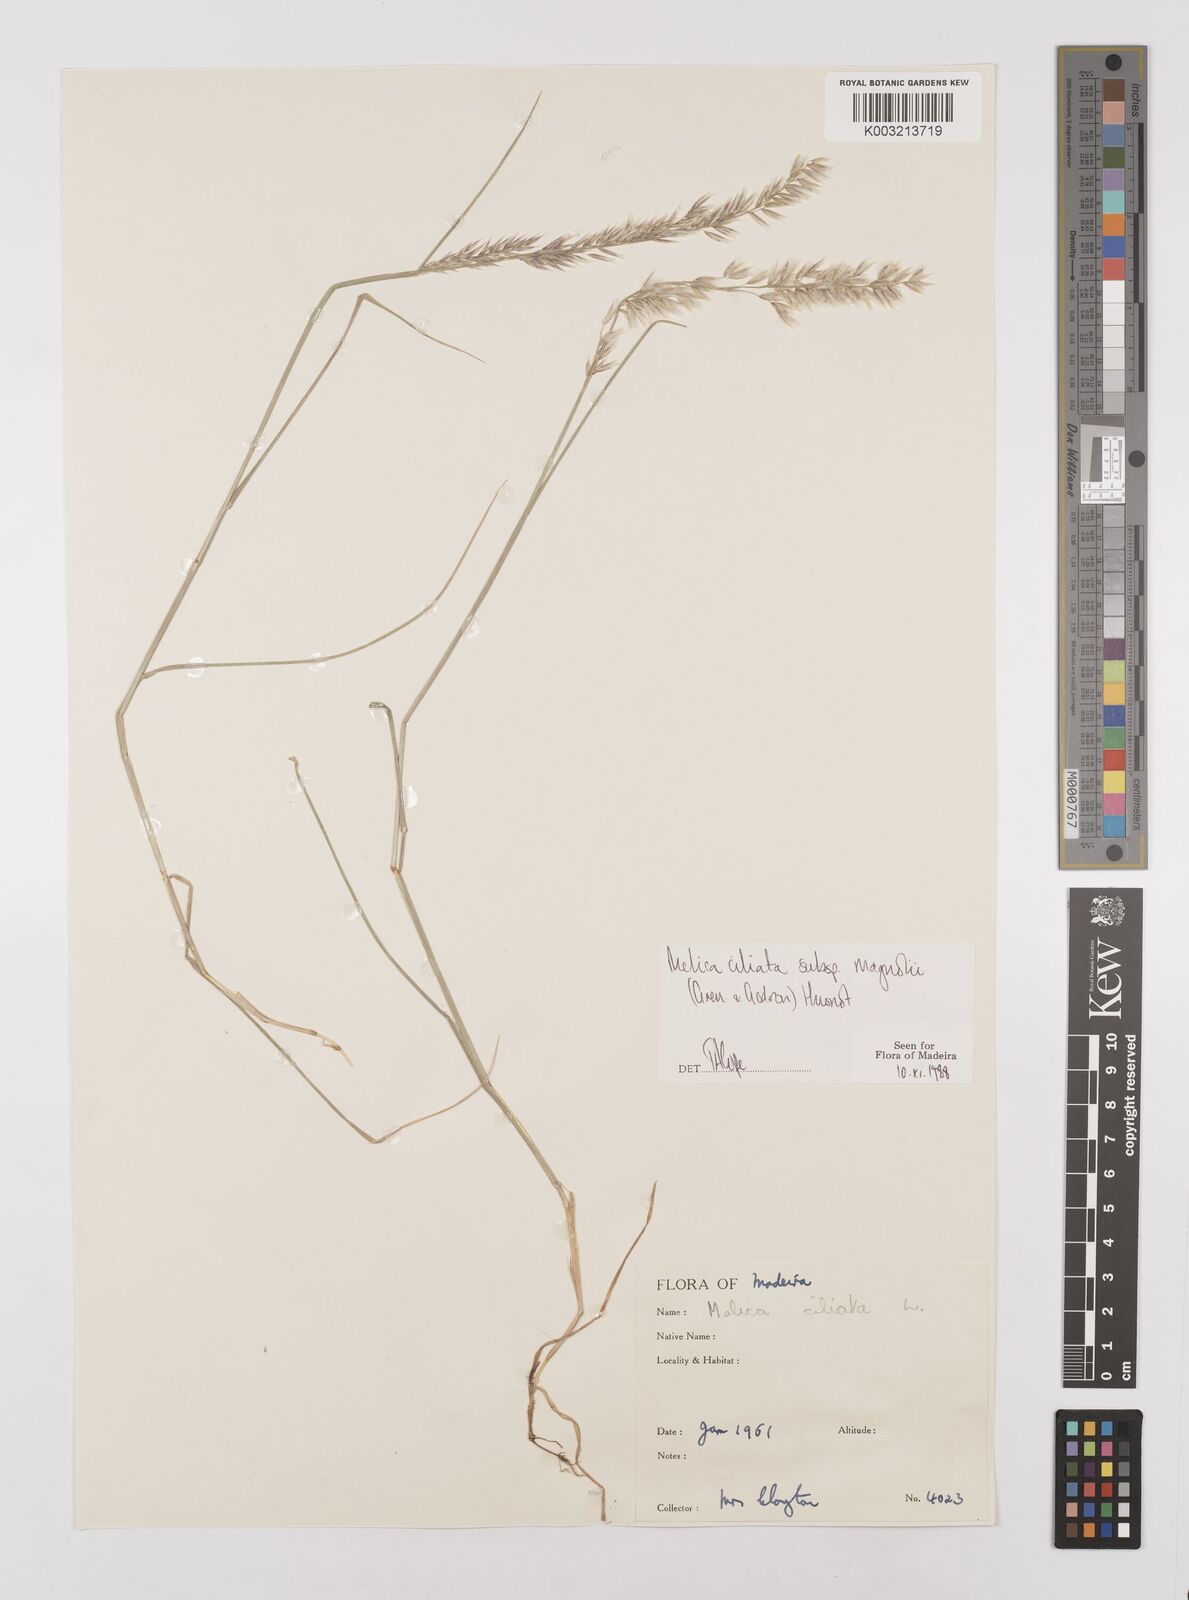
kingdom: Plantae
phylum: Tracheophyta
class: Liliopsida
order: Poales
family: Poaceae
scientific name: Poaceae
